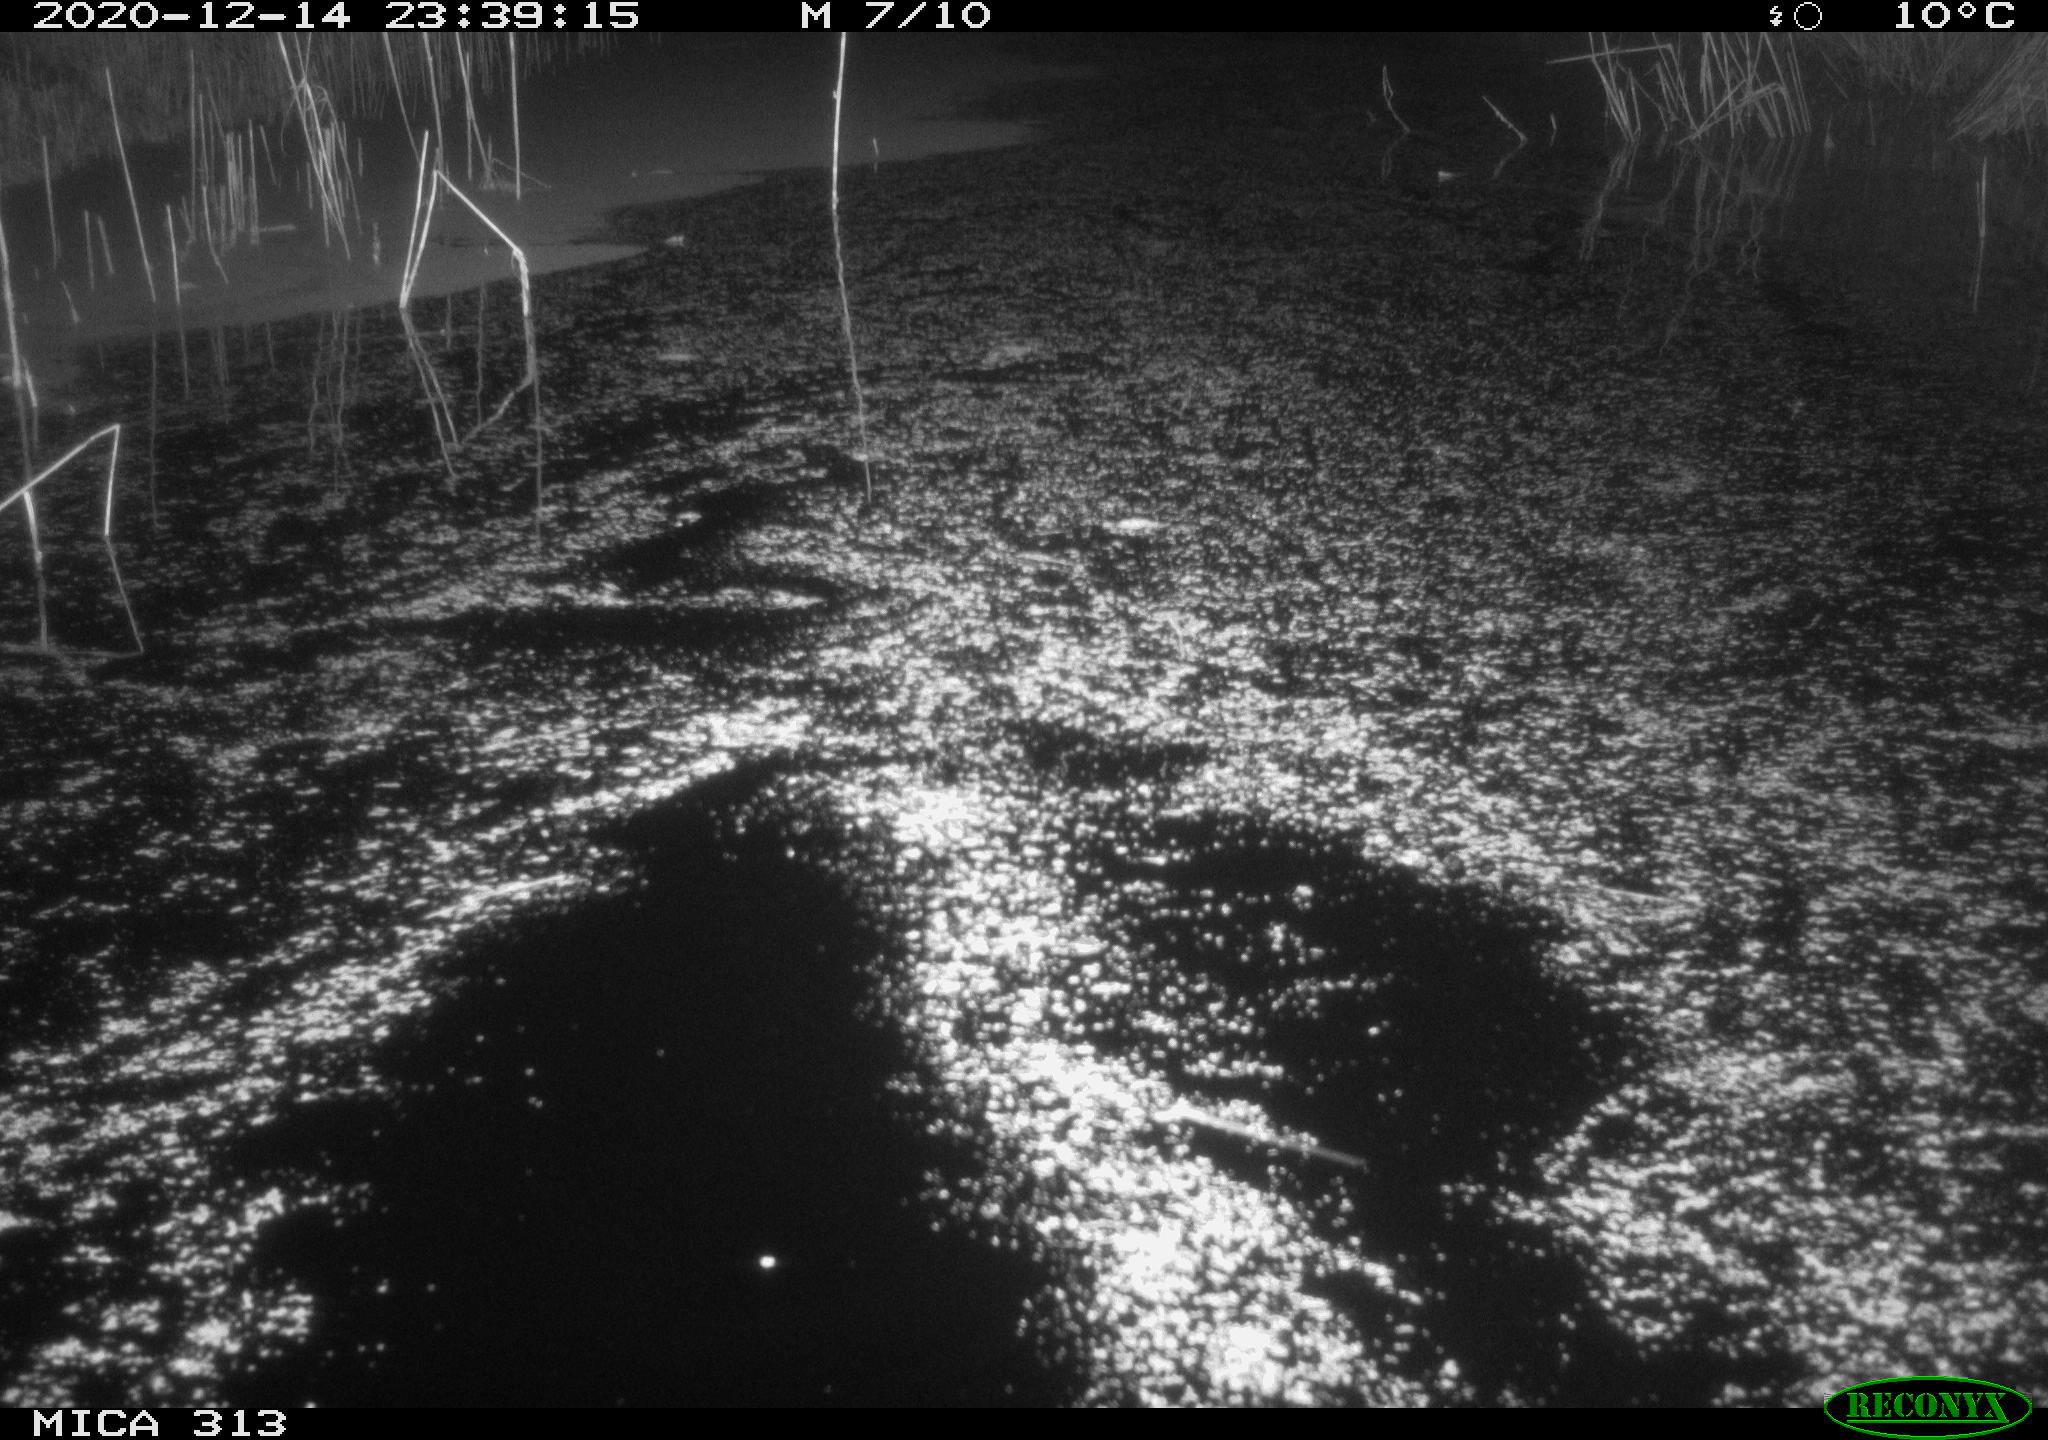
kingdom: Animalia
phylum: Chordata
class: Mammalia
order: Rodentia
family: Muridae
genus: Rattus
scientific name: Rattus norvegicus
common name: Brown rat
